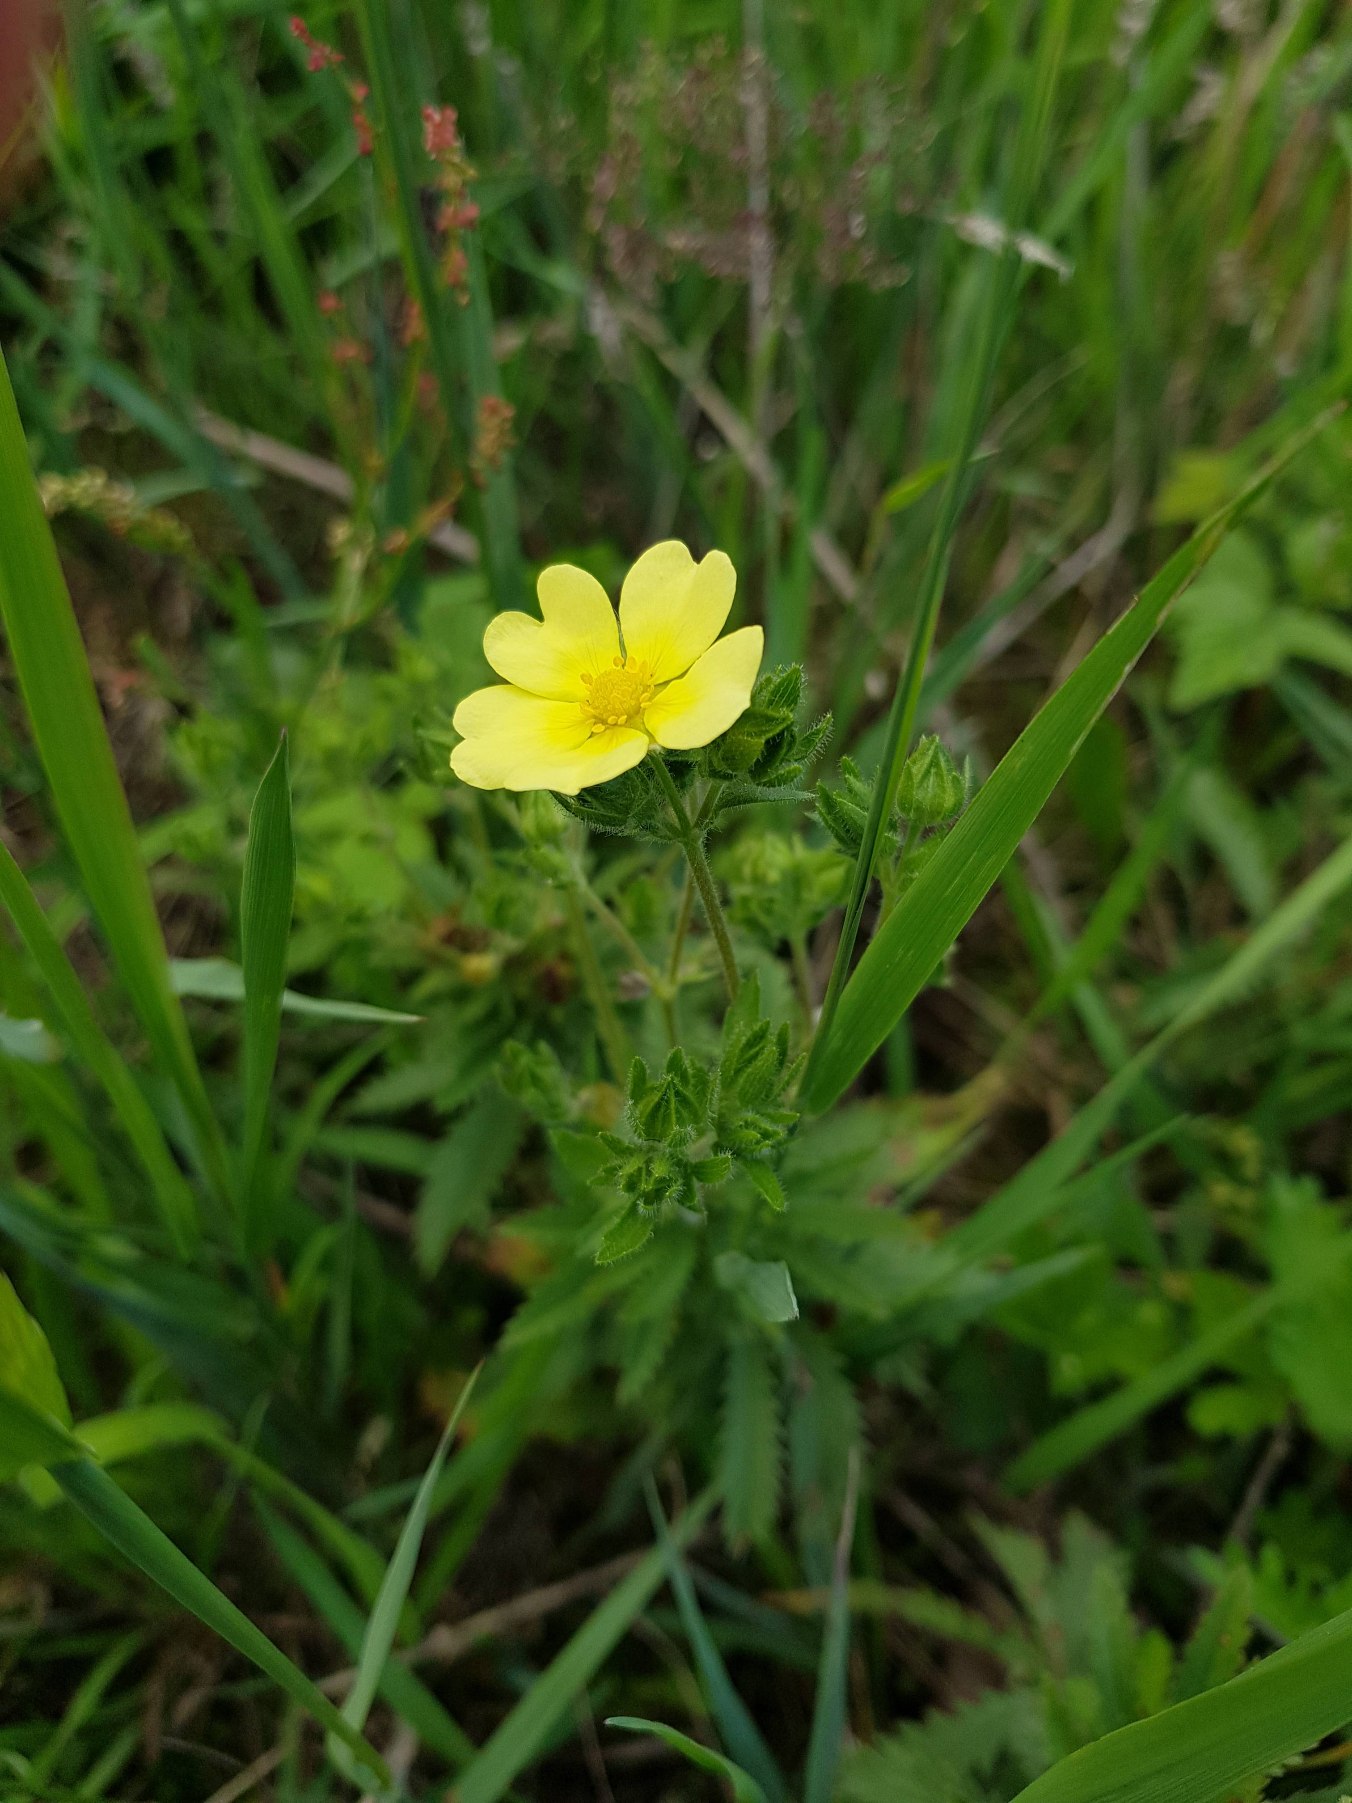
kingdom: Plantae
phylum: Tracheophyta
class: Magnoliopsida
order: Rosales
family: Rosaceae
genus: Potentilla
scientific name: Potentilla recta
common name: Rank potentil
